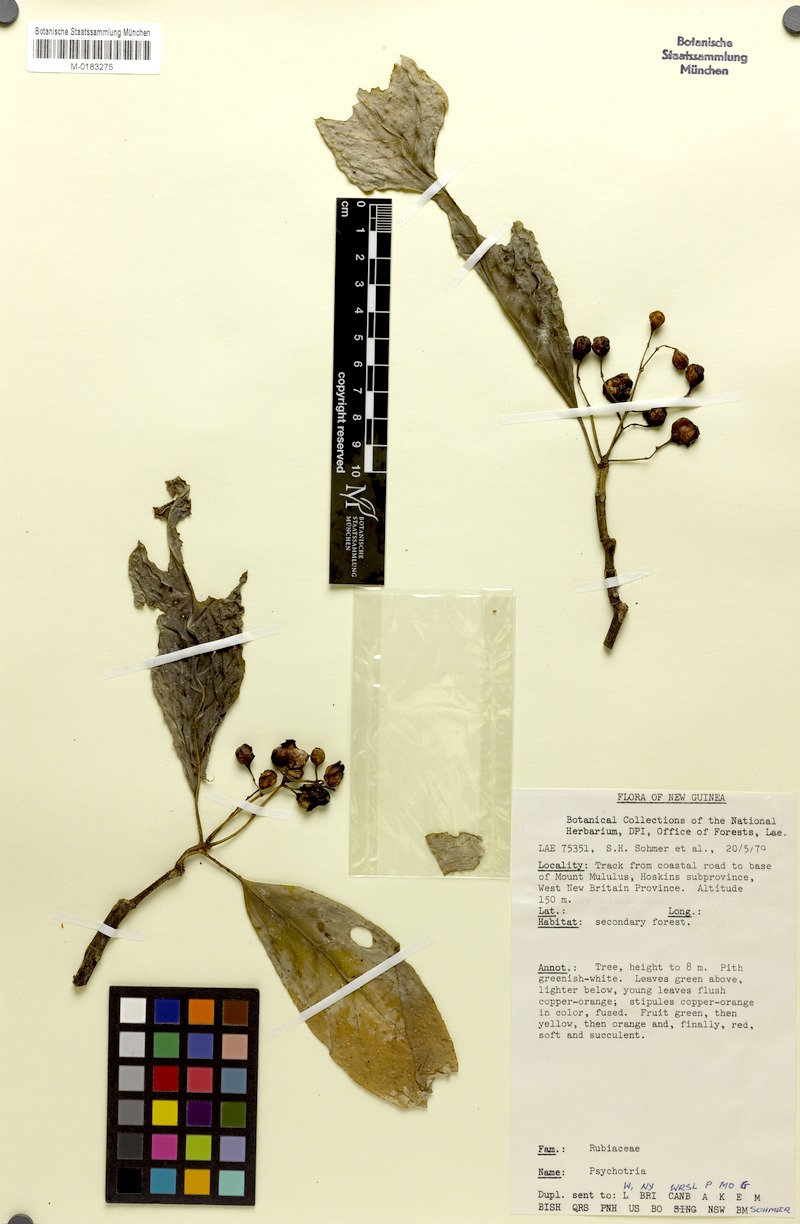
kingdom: Plantae
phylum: Tracheophyta
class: Magnoliopsida
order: Gentianales
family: Rubiaceae
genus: Eumachia
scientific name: Eumachia damasiana
